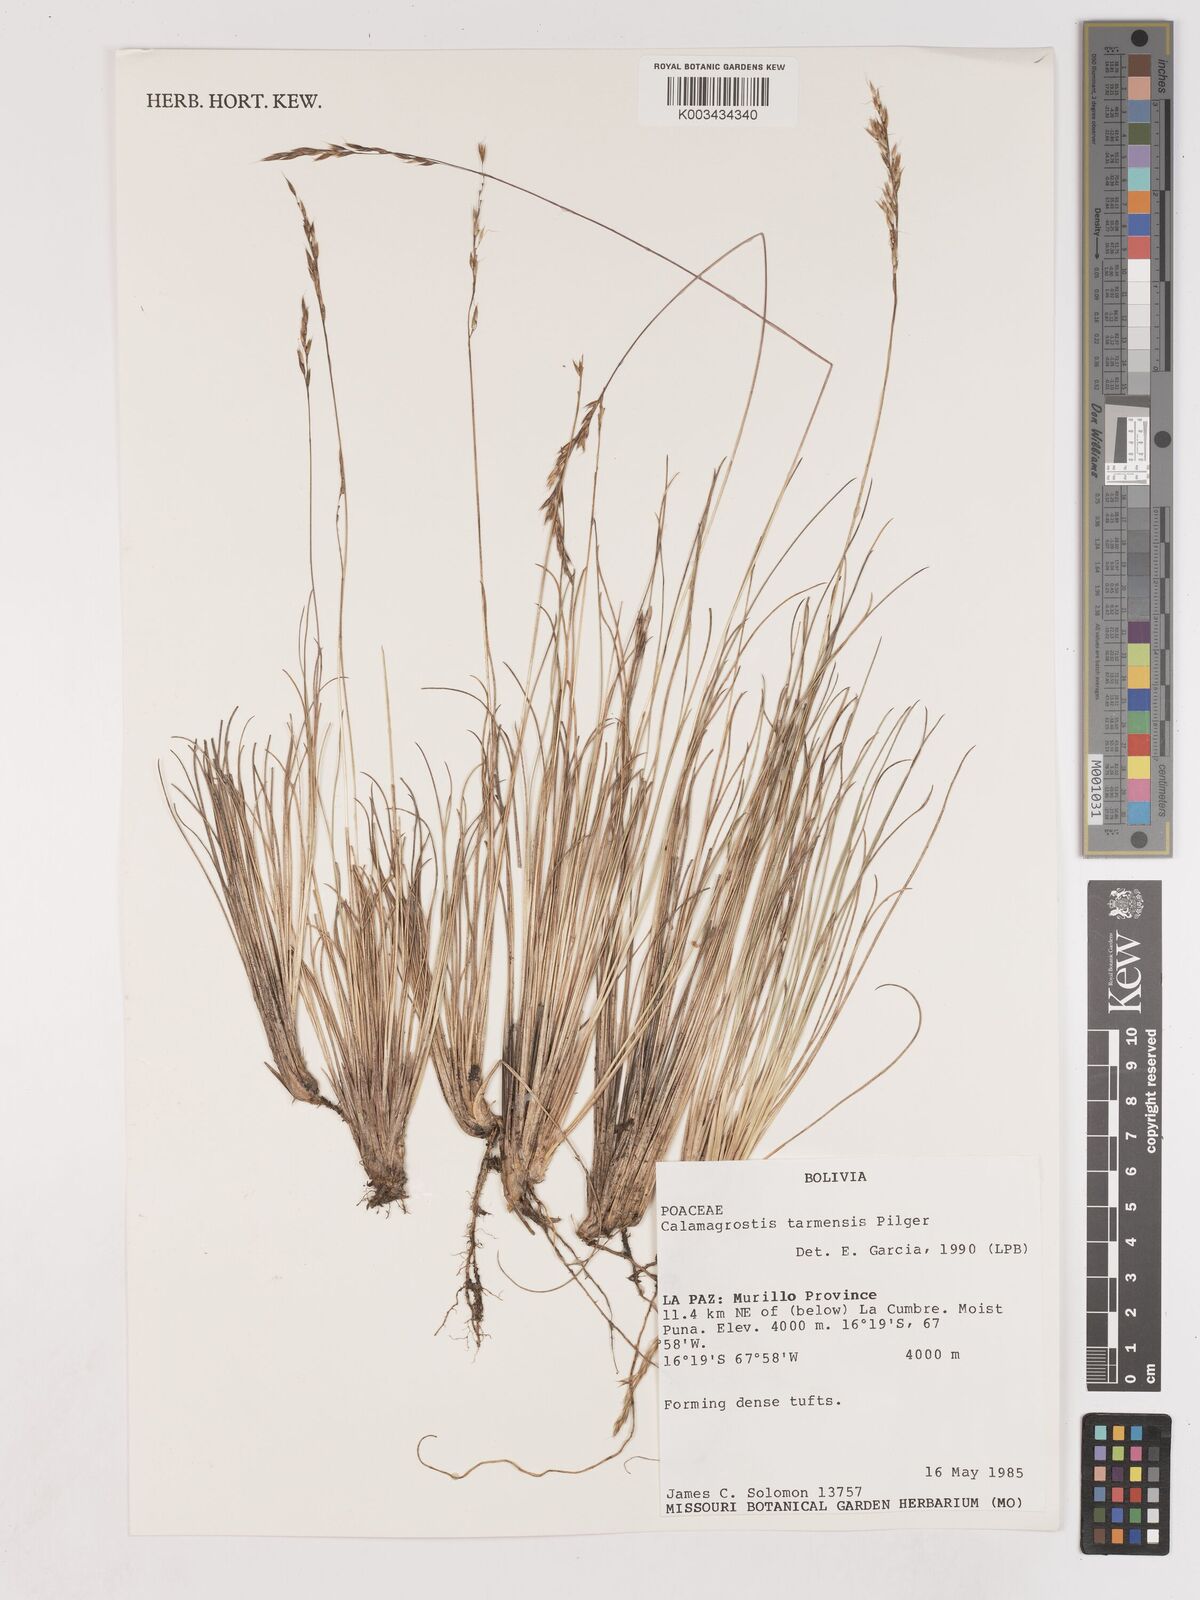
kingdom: Plantae
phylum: Tracheophyta
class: Liliopsida
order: Poales
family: Poaceae
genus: Cinnagrostis
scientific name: Cinnagrostis violacea
